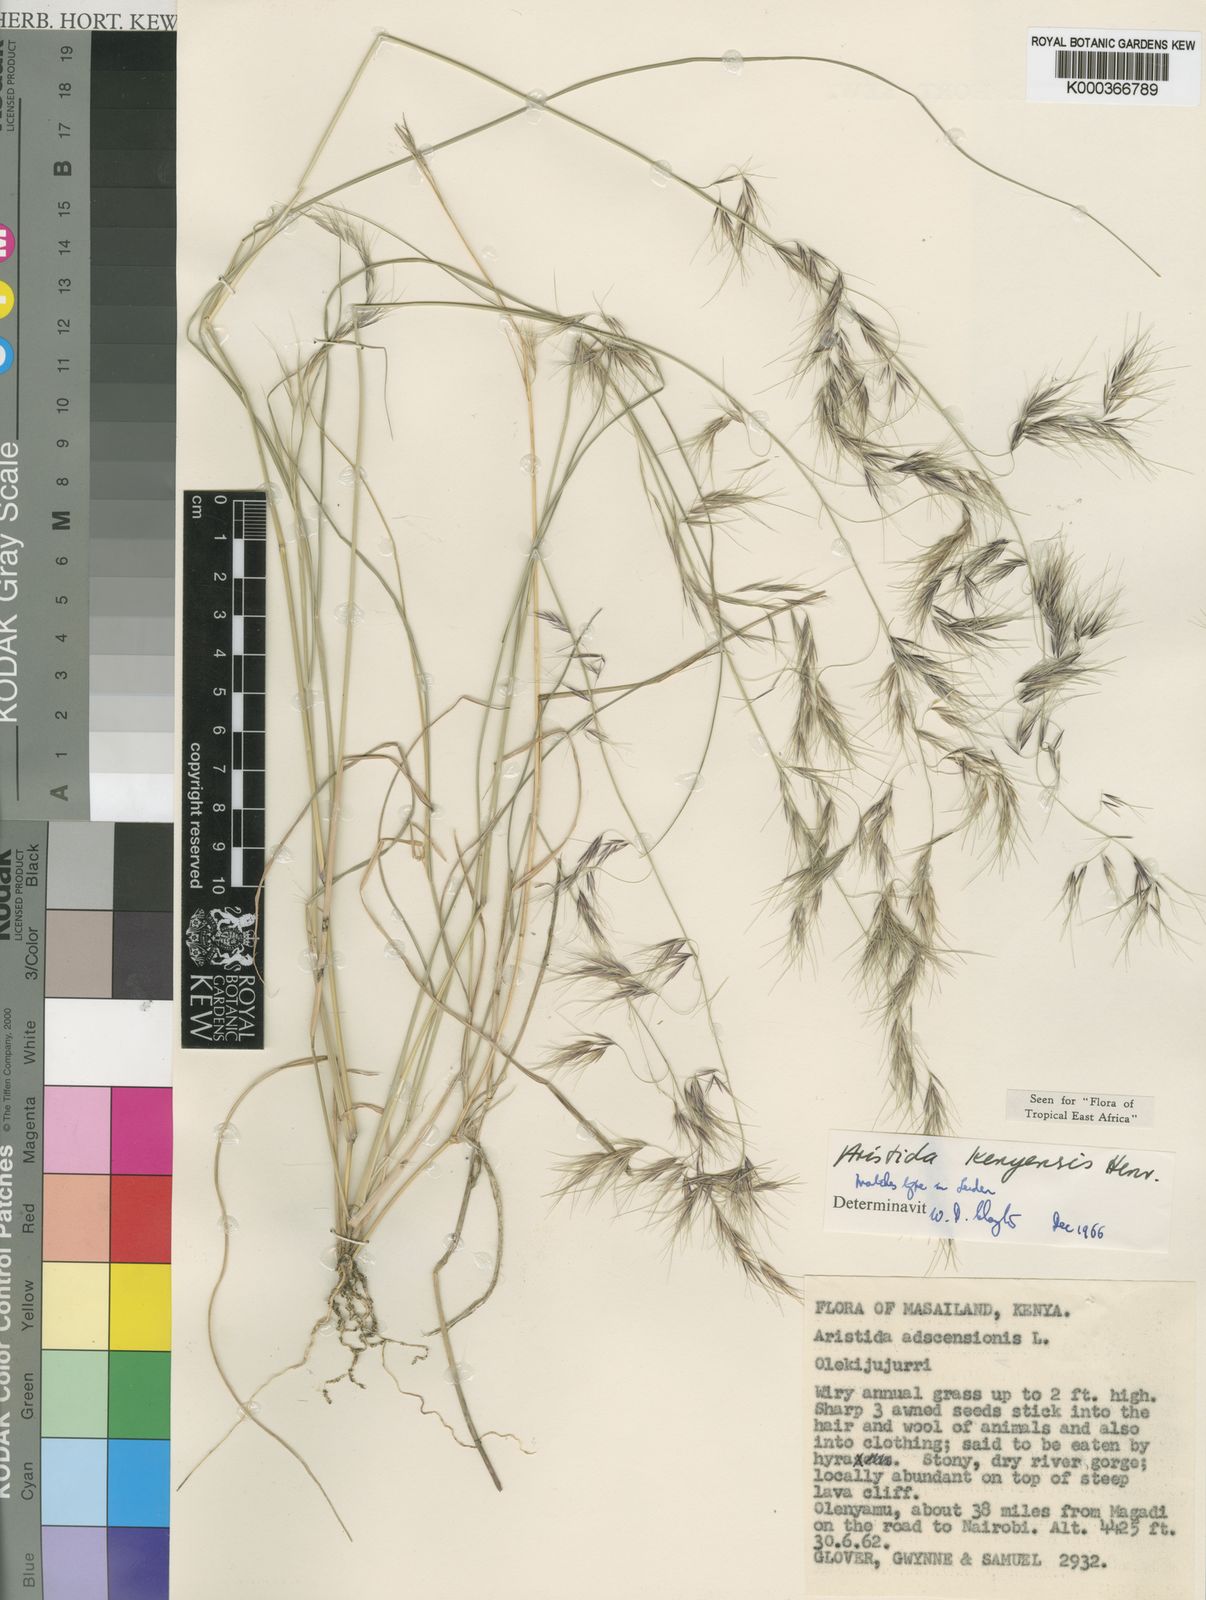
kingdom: Plantae
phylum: Tracheophyta
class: Liliopsida
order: Poales
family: Poaceae
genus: Aristida
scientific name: Aristida kenyensis
